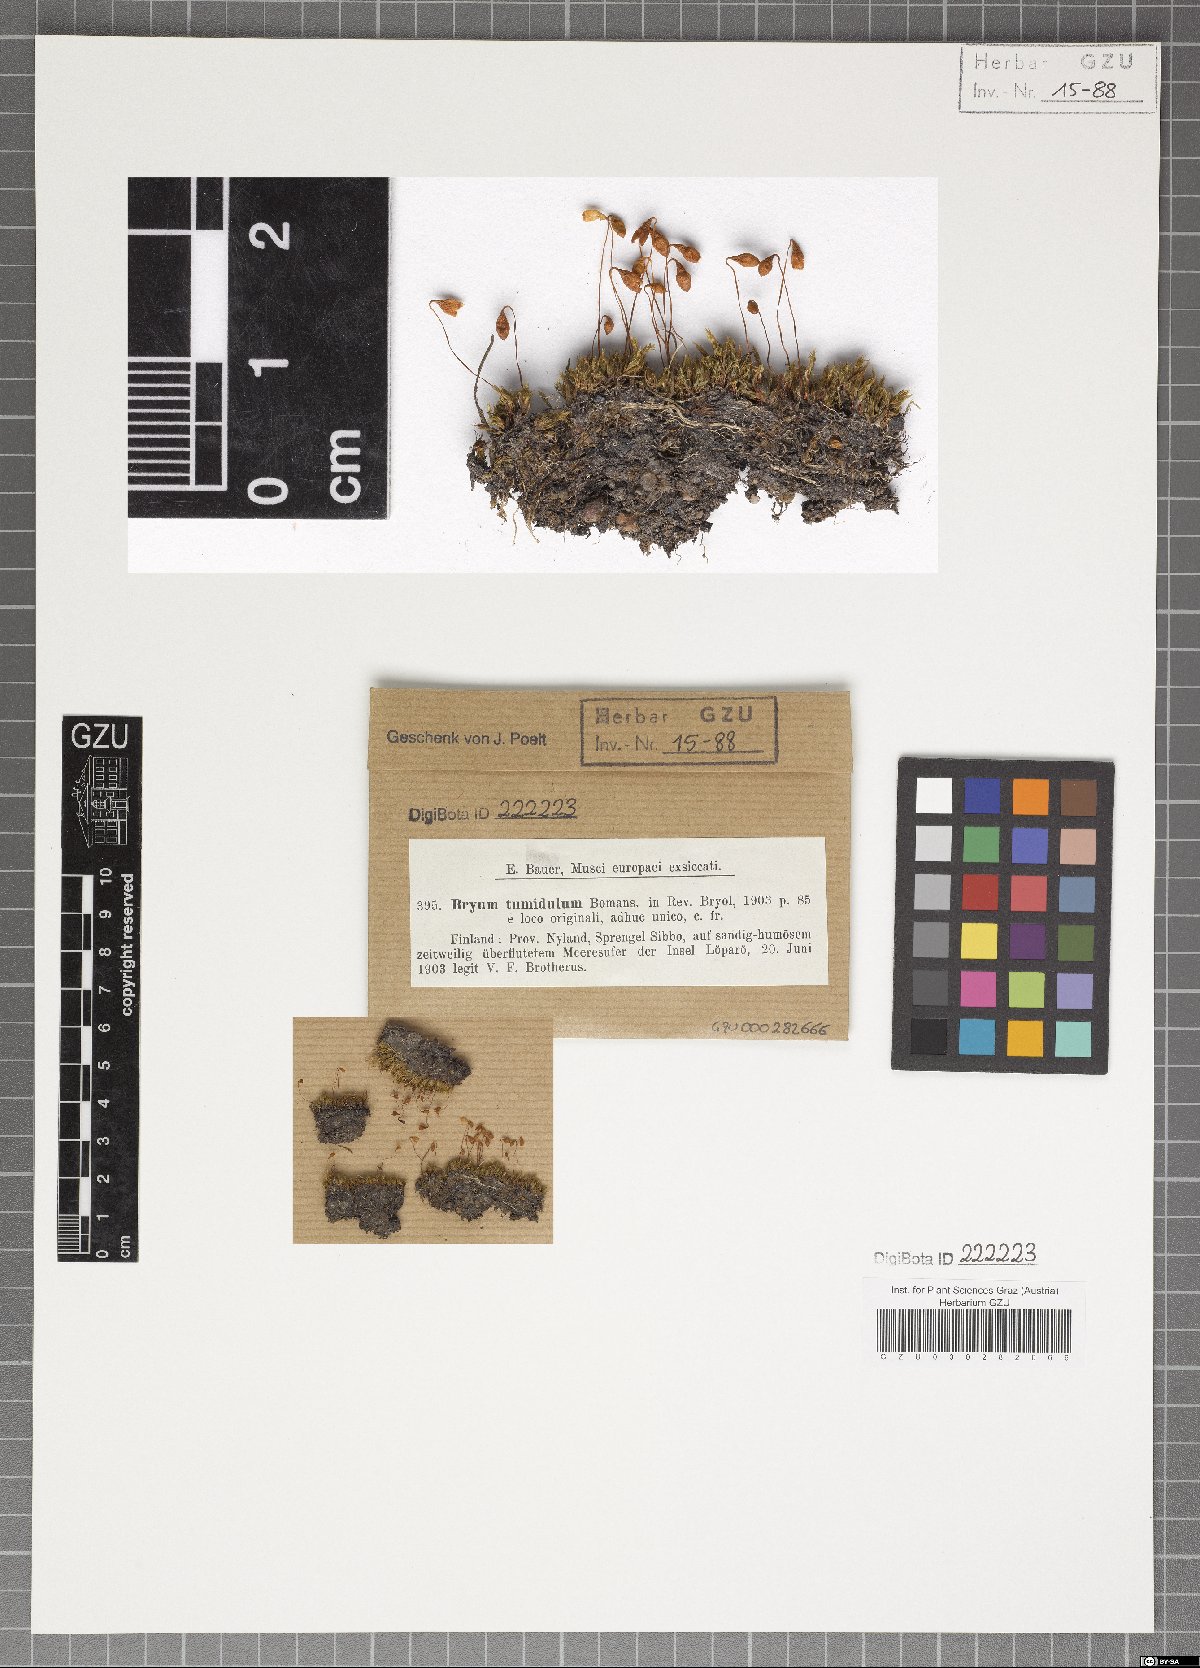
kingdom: Plantae
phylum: Bryophyta
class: Bryopsida
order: Bryales
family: Bryaceae
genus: Ptychostomum
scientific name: Ptychostomum archangelicum
